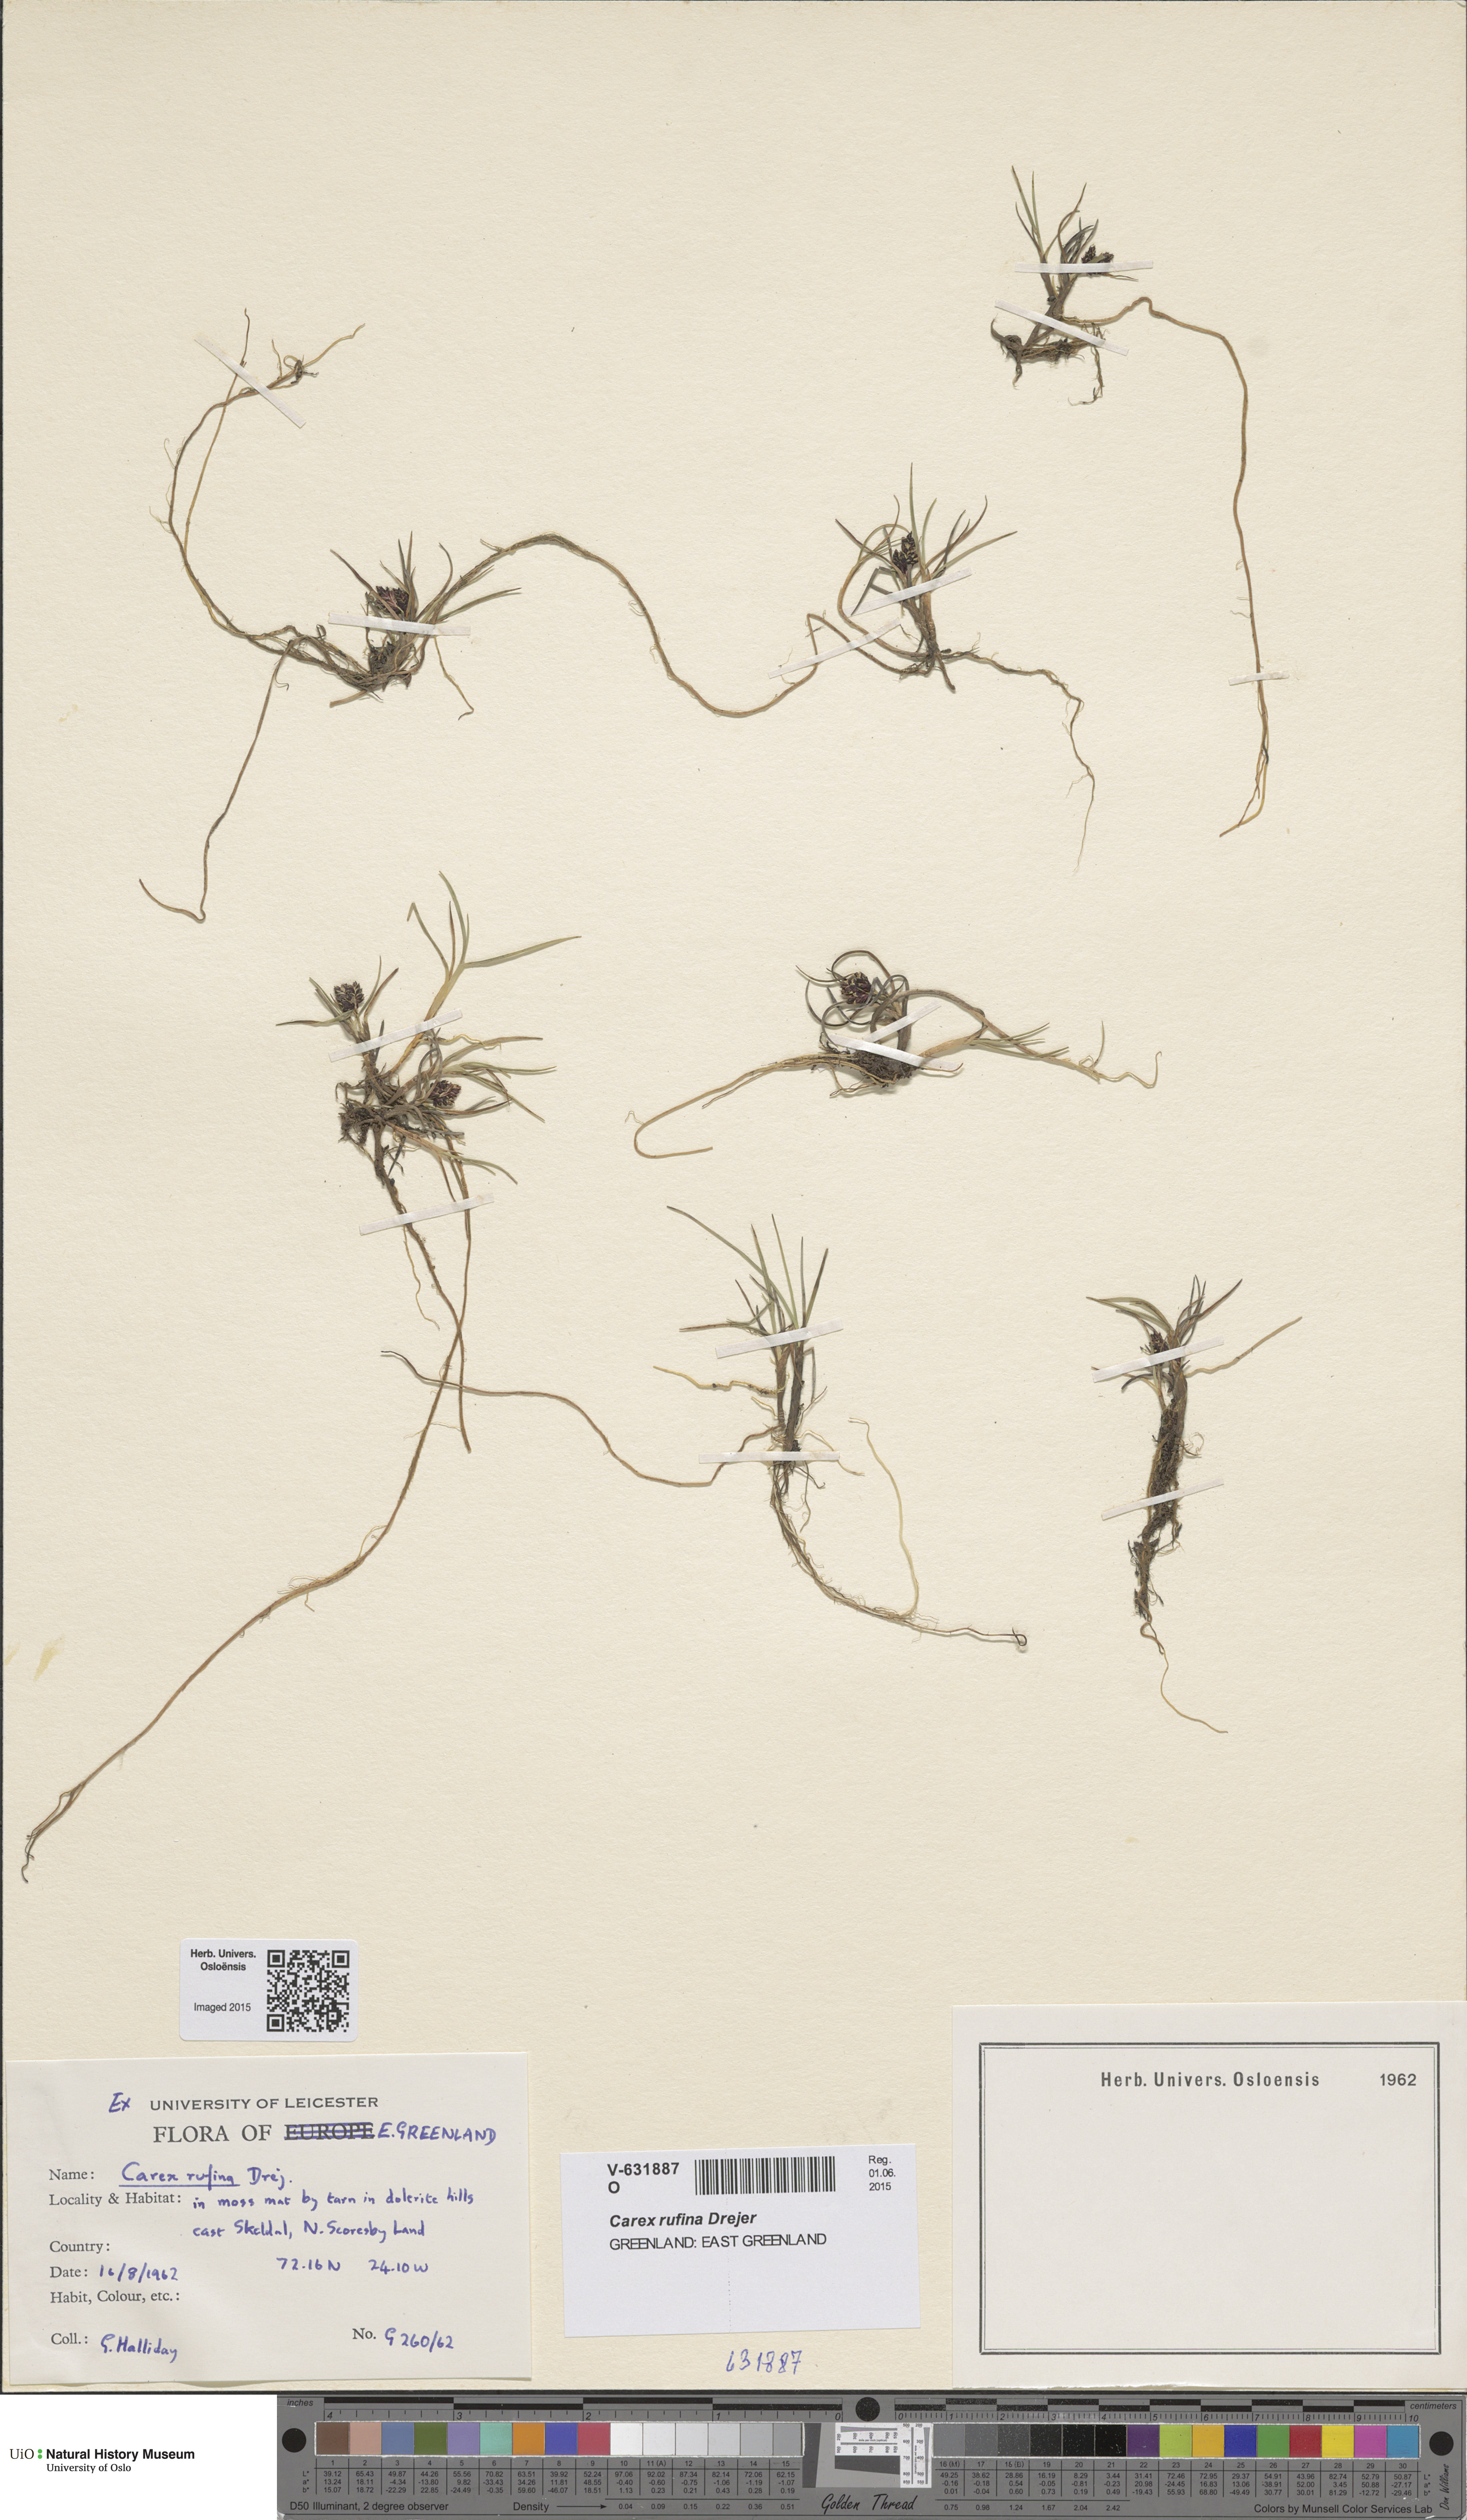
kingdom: Plantae
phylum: Tracheophyta
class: Liliopsida
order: Poales
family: Cyperaceae
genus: Carex
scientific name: Carex rufina
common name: Reddish sedge
